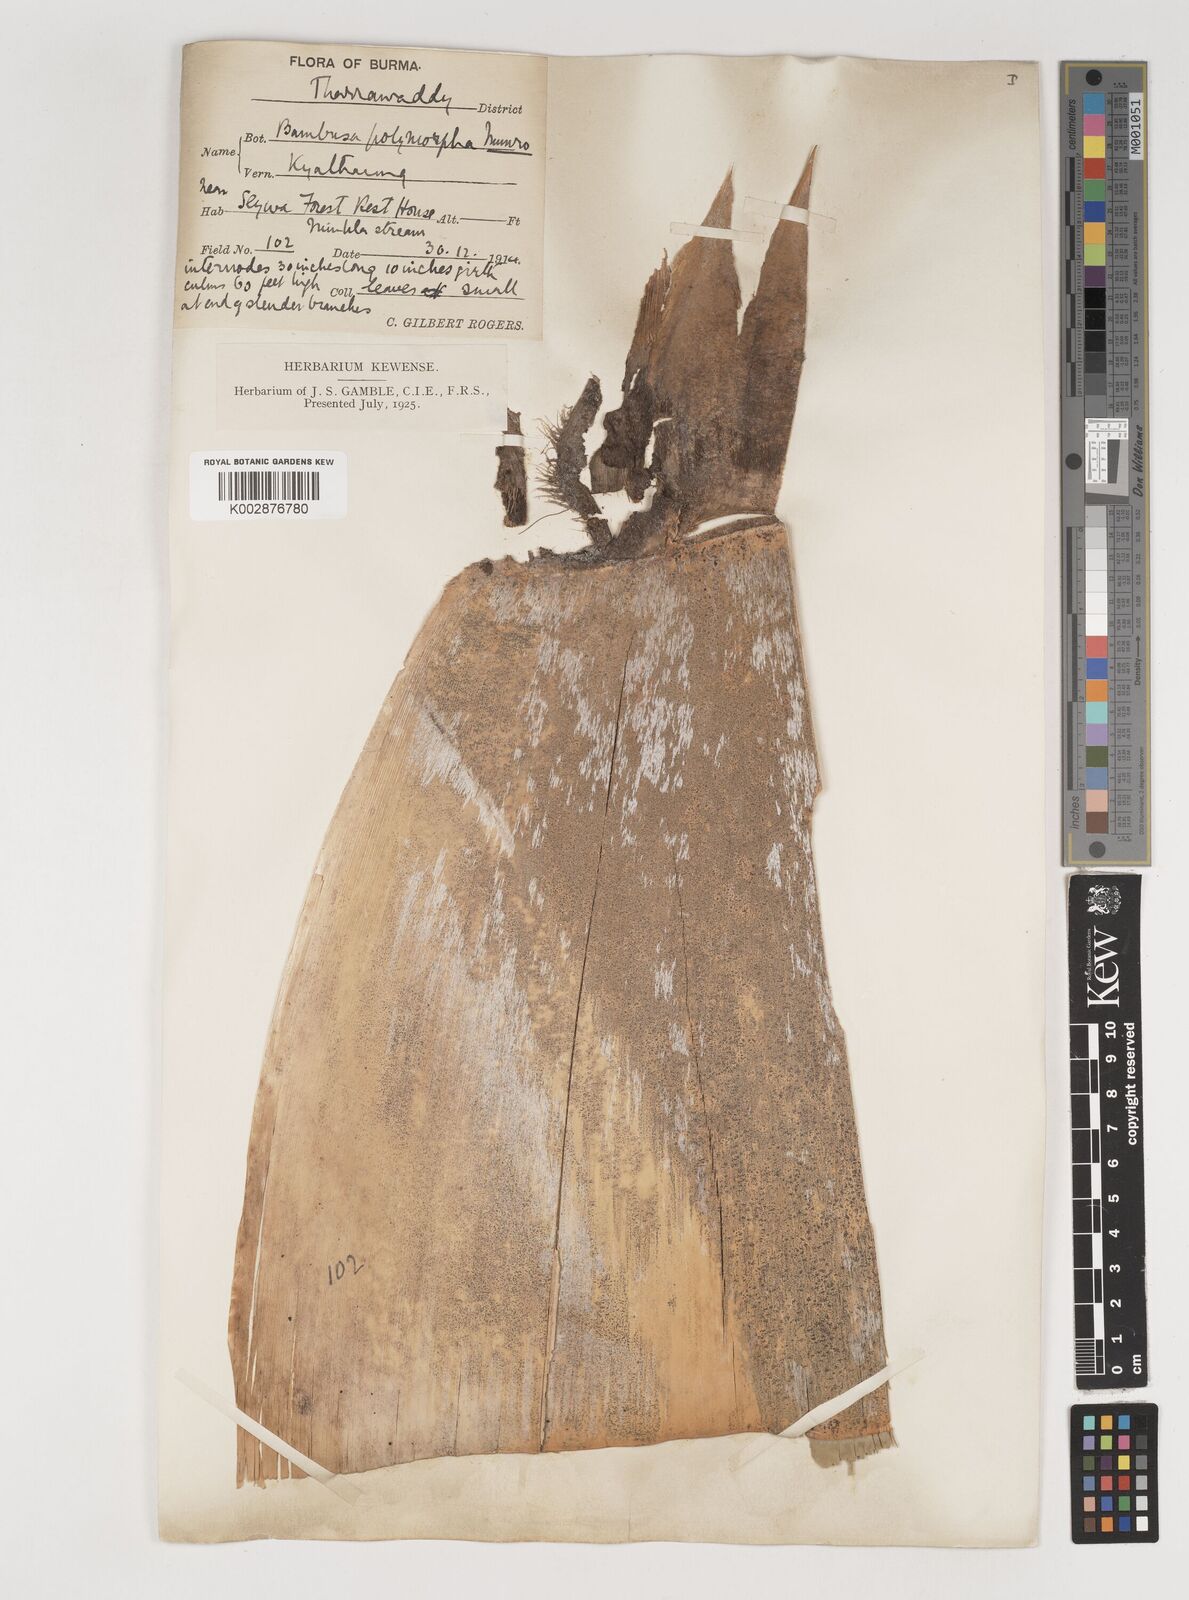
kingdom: Plantae
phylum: Tracheophyta
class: Liliopsida
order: Poales
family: Poaceae
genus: Bambusa
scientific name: Bambusa polymorpha
